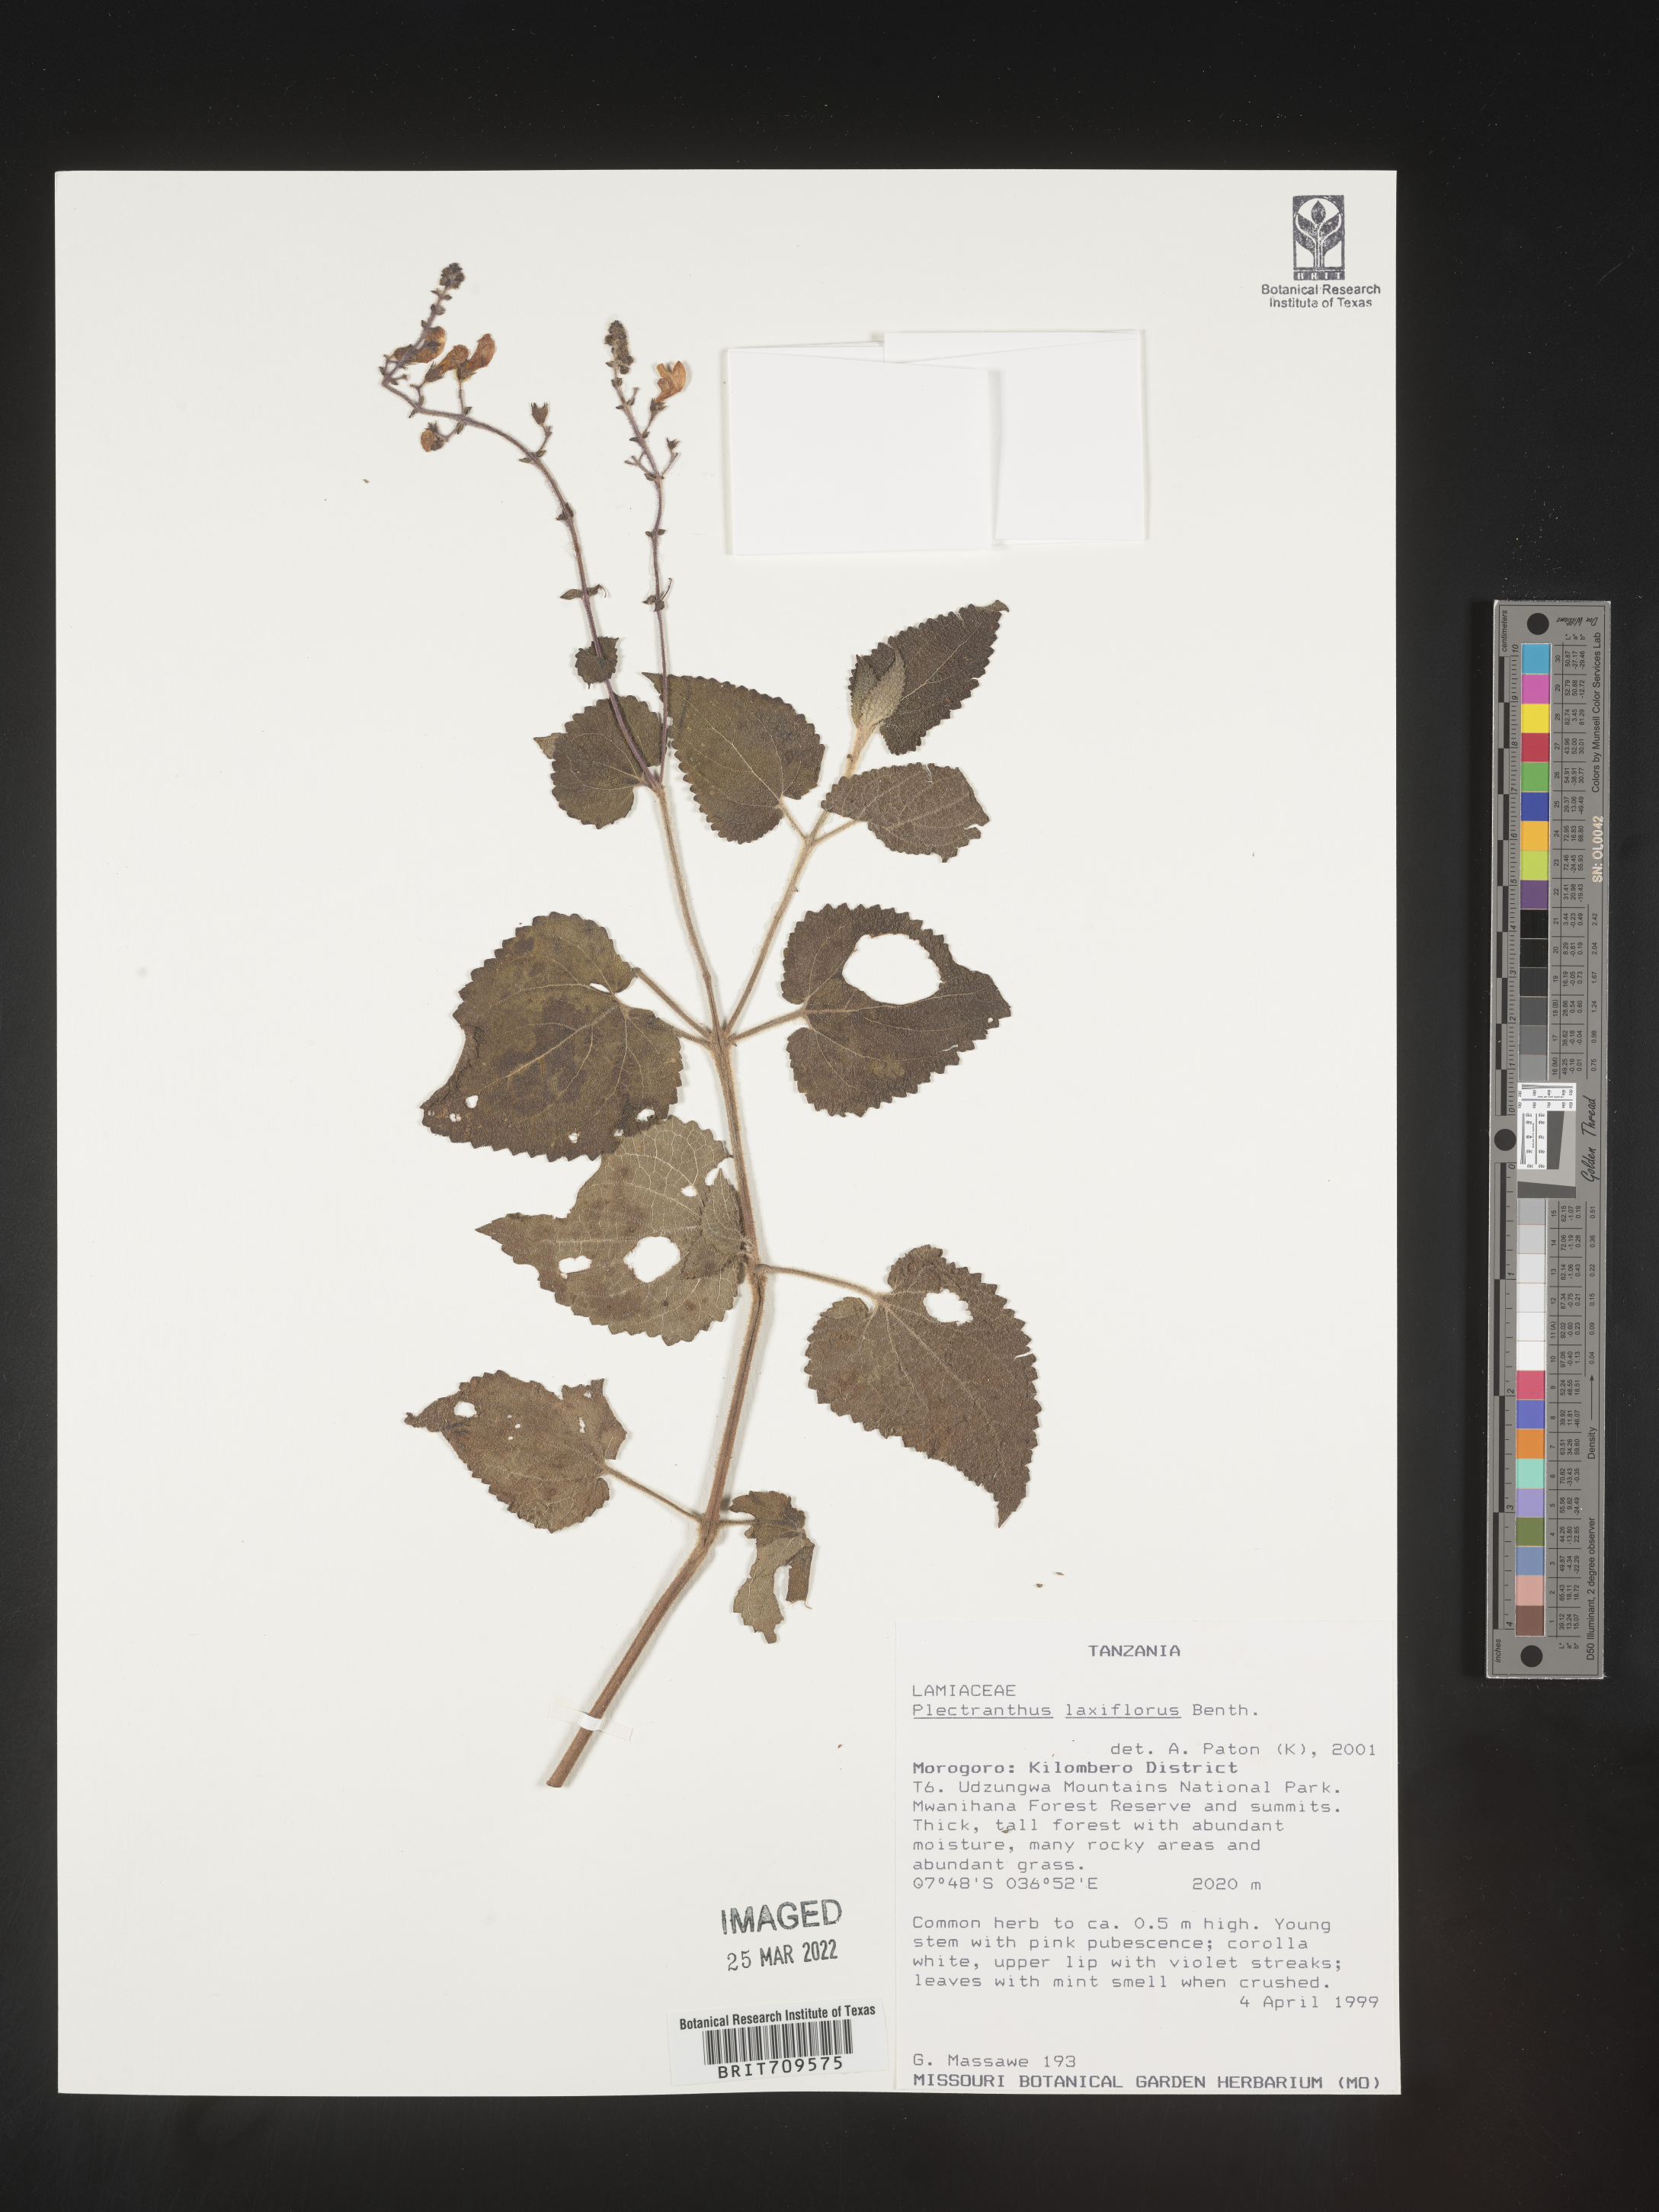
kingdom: Plantae
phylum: Tracheophyta
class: Magnoliopsida
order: Lamiales
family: Lamiaceae
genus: Plectranthus
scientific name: Plectranthus
